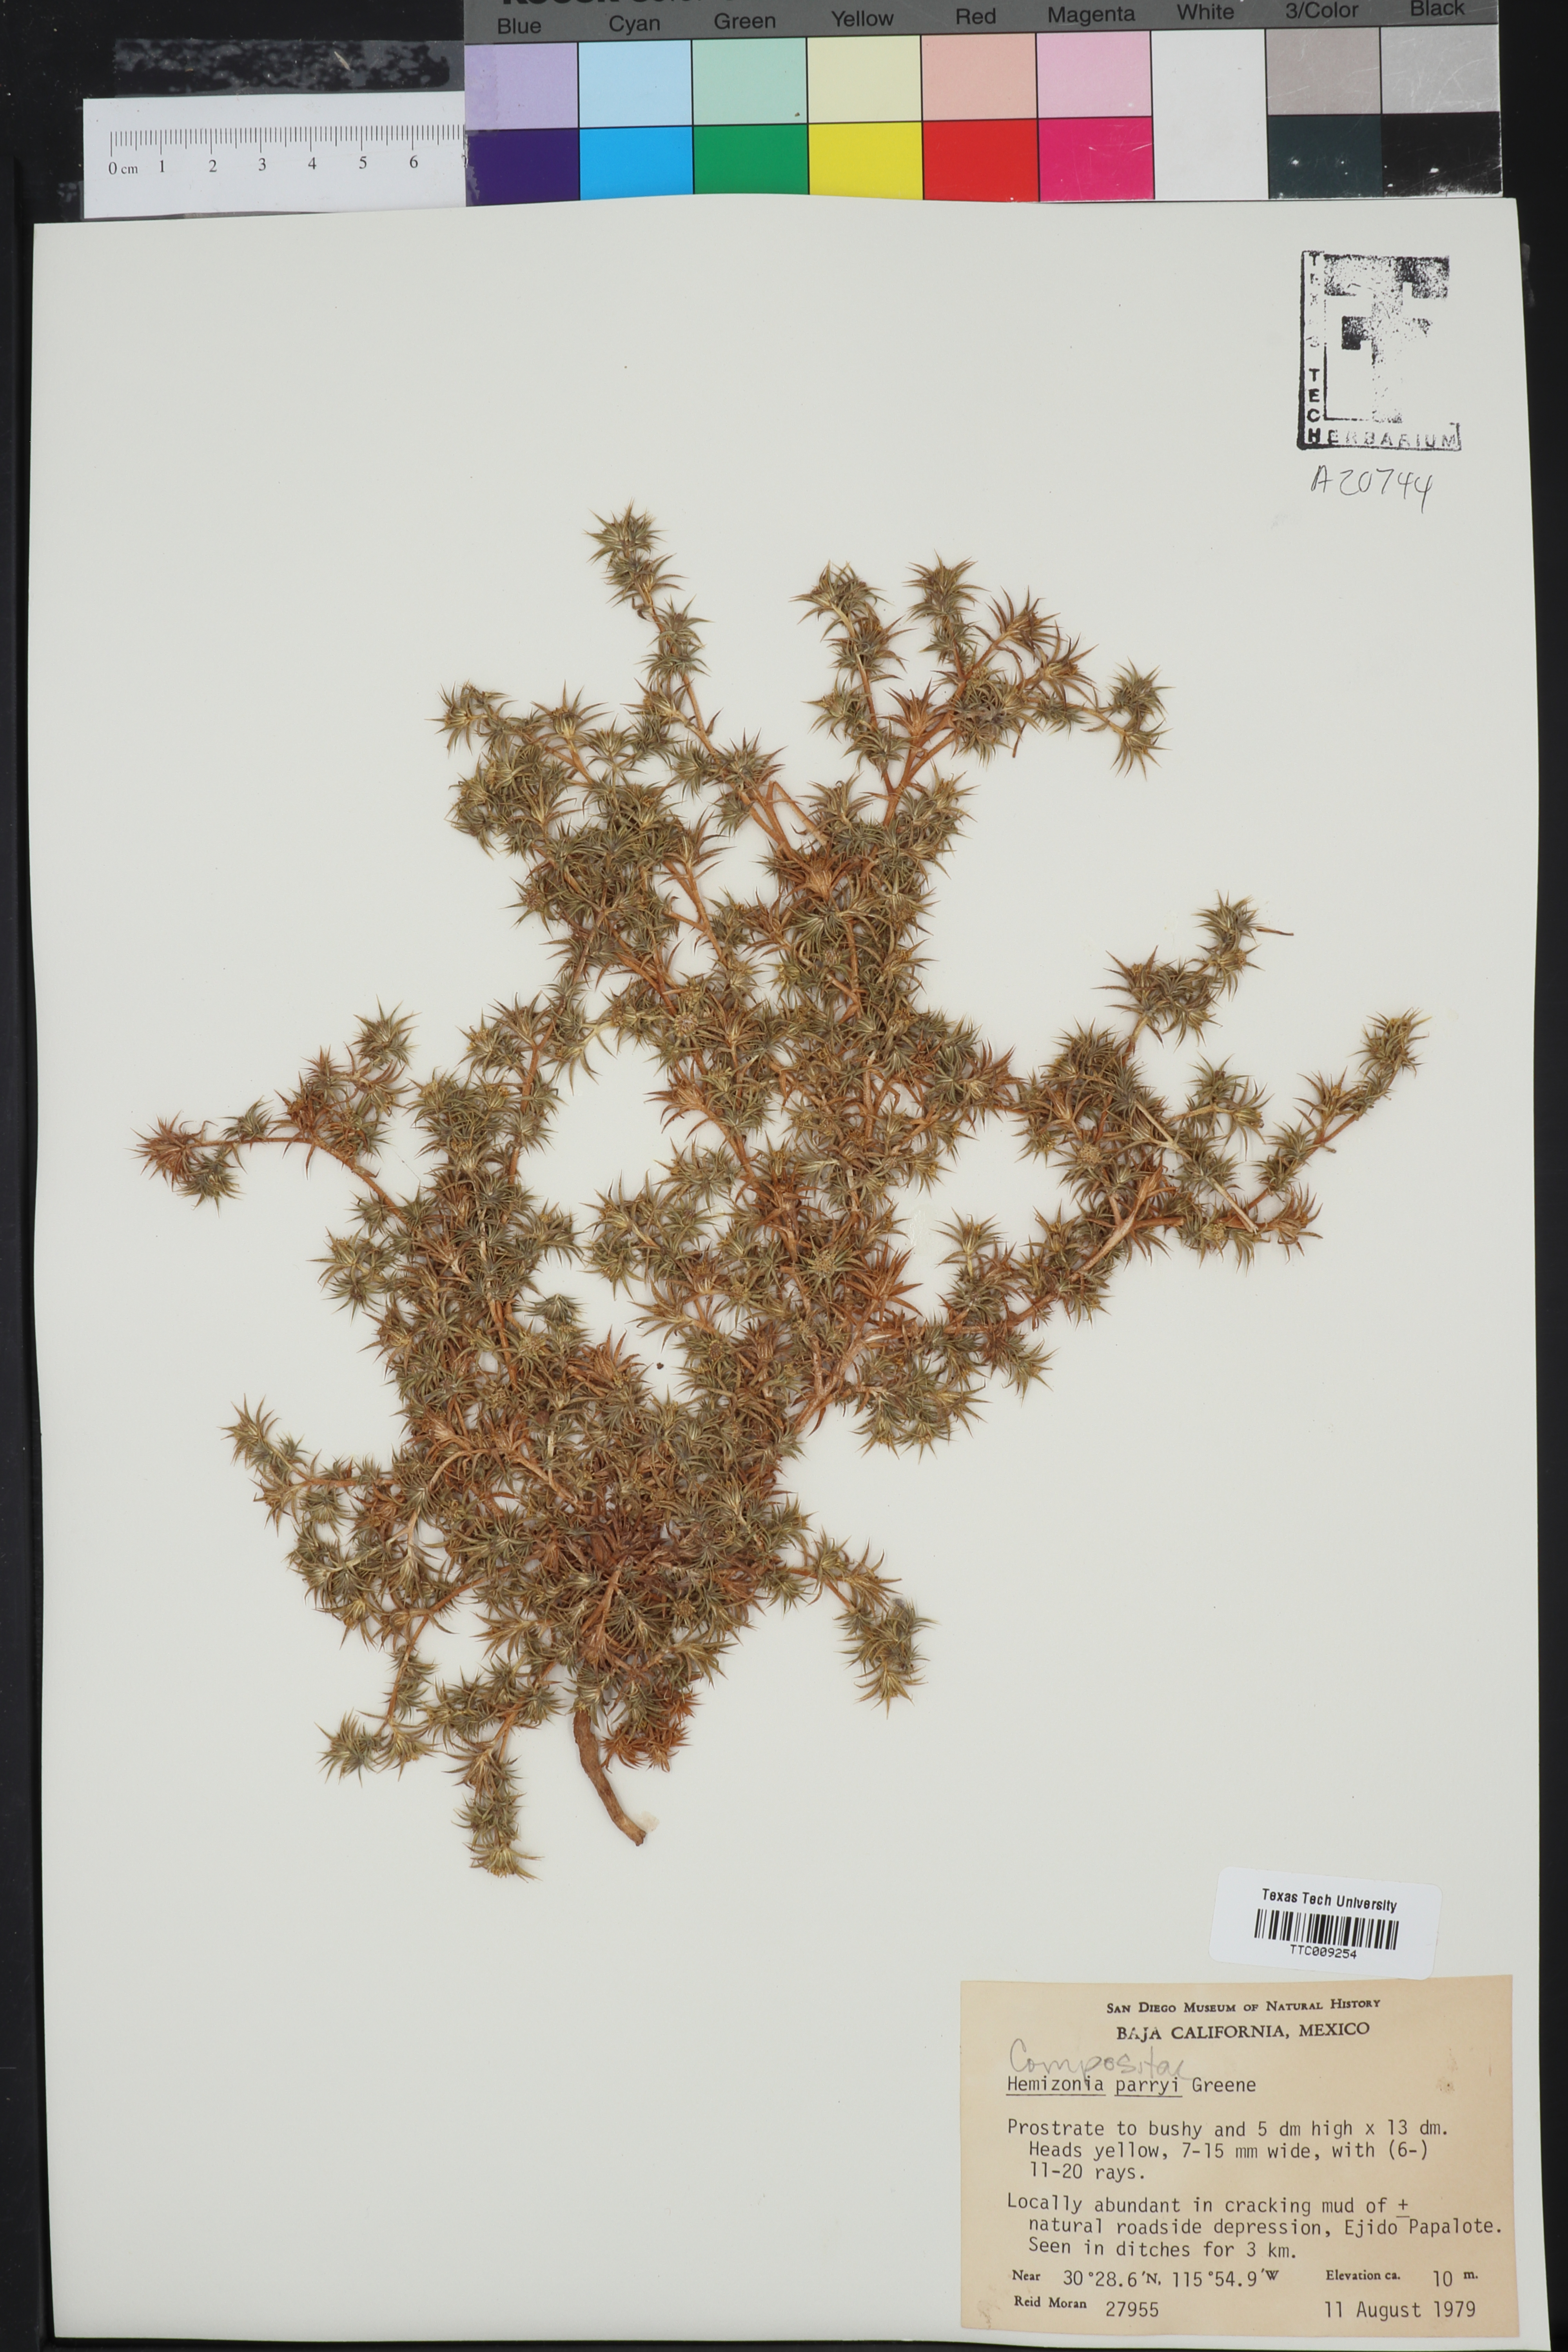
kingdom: Plantae
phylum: Tracheophyta
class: Magnoliopsida
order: Asterales
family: Asteraceae
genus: Centromadia
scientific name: Centromadia parryi
